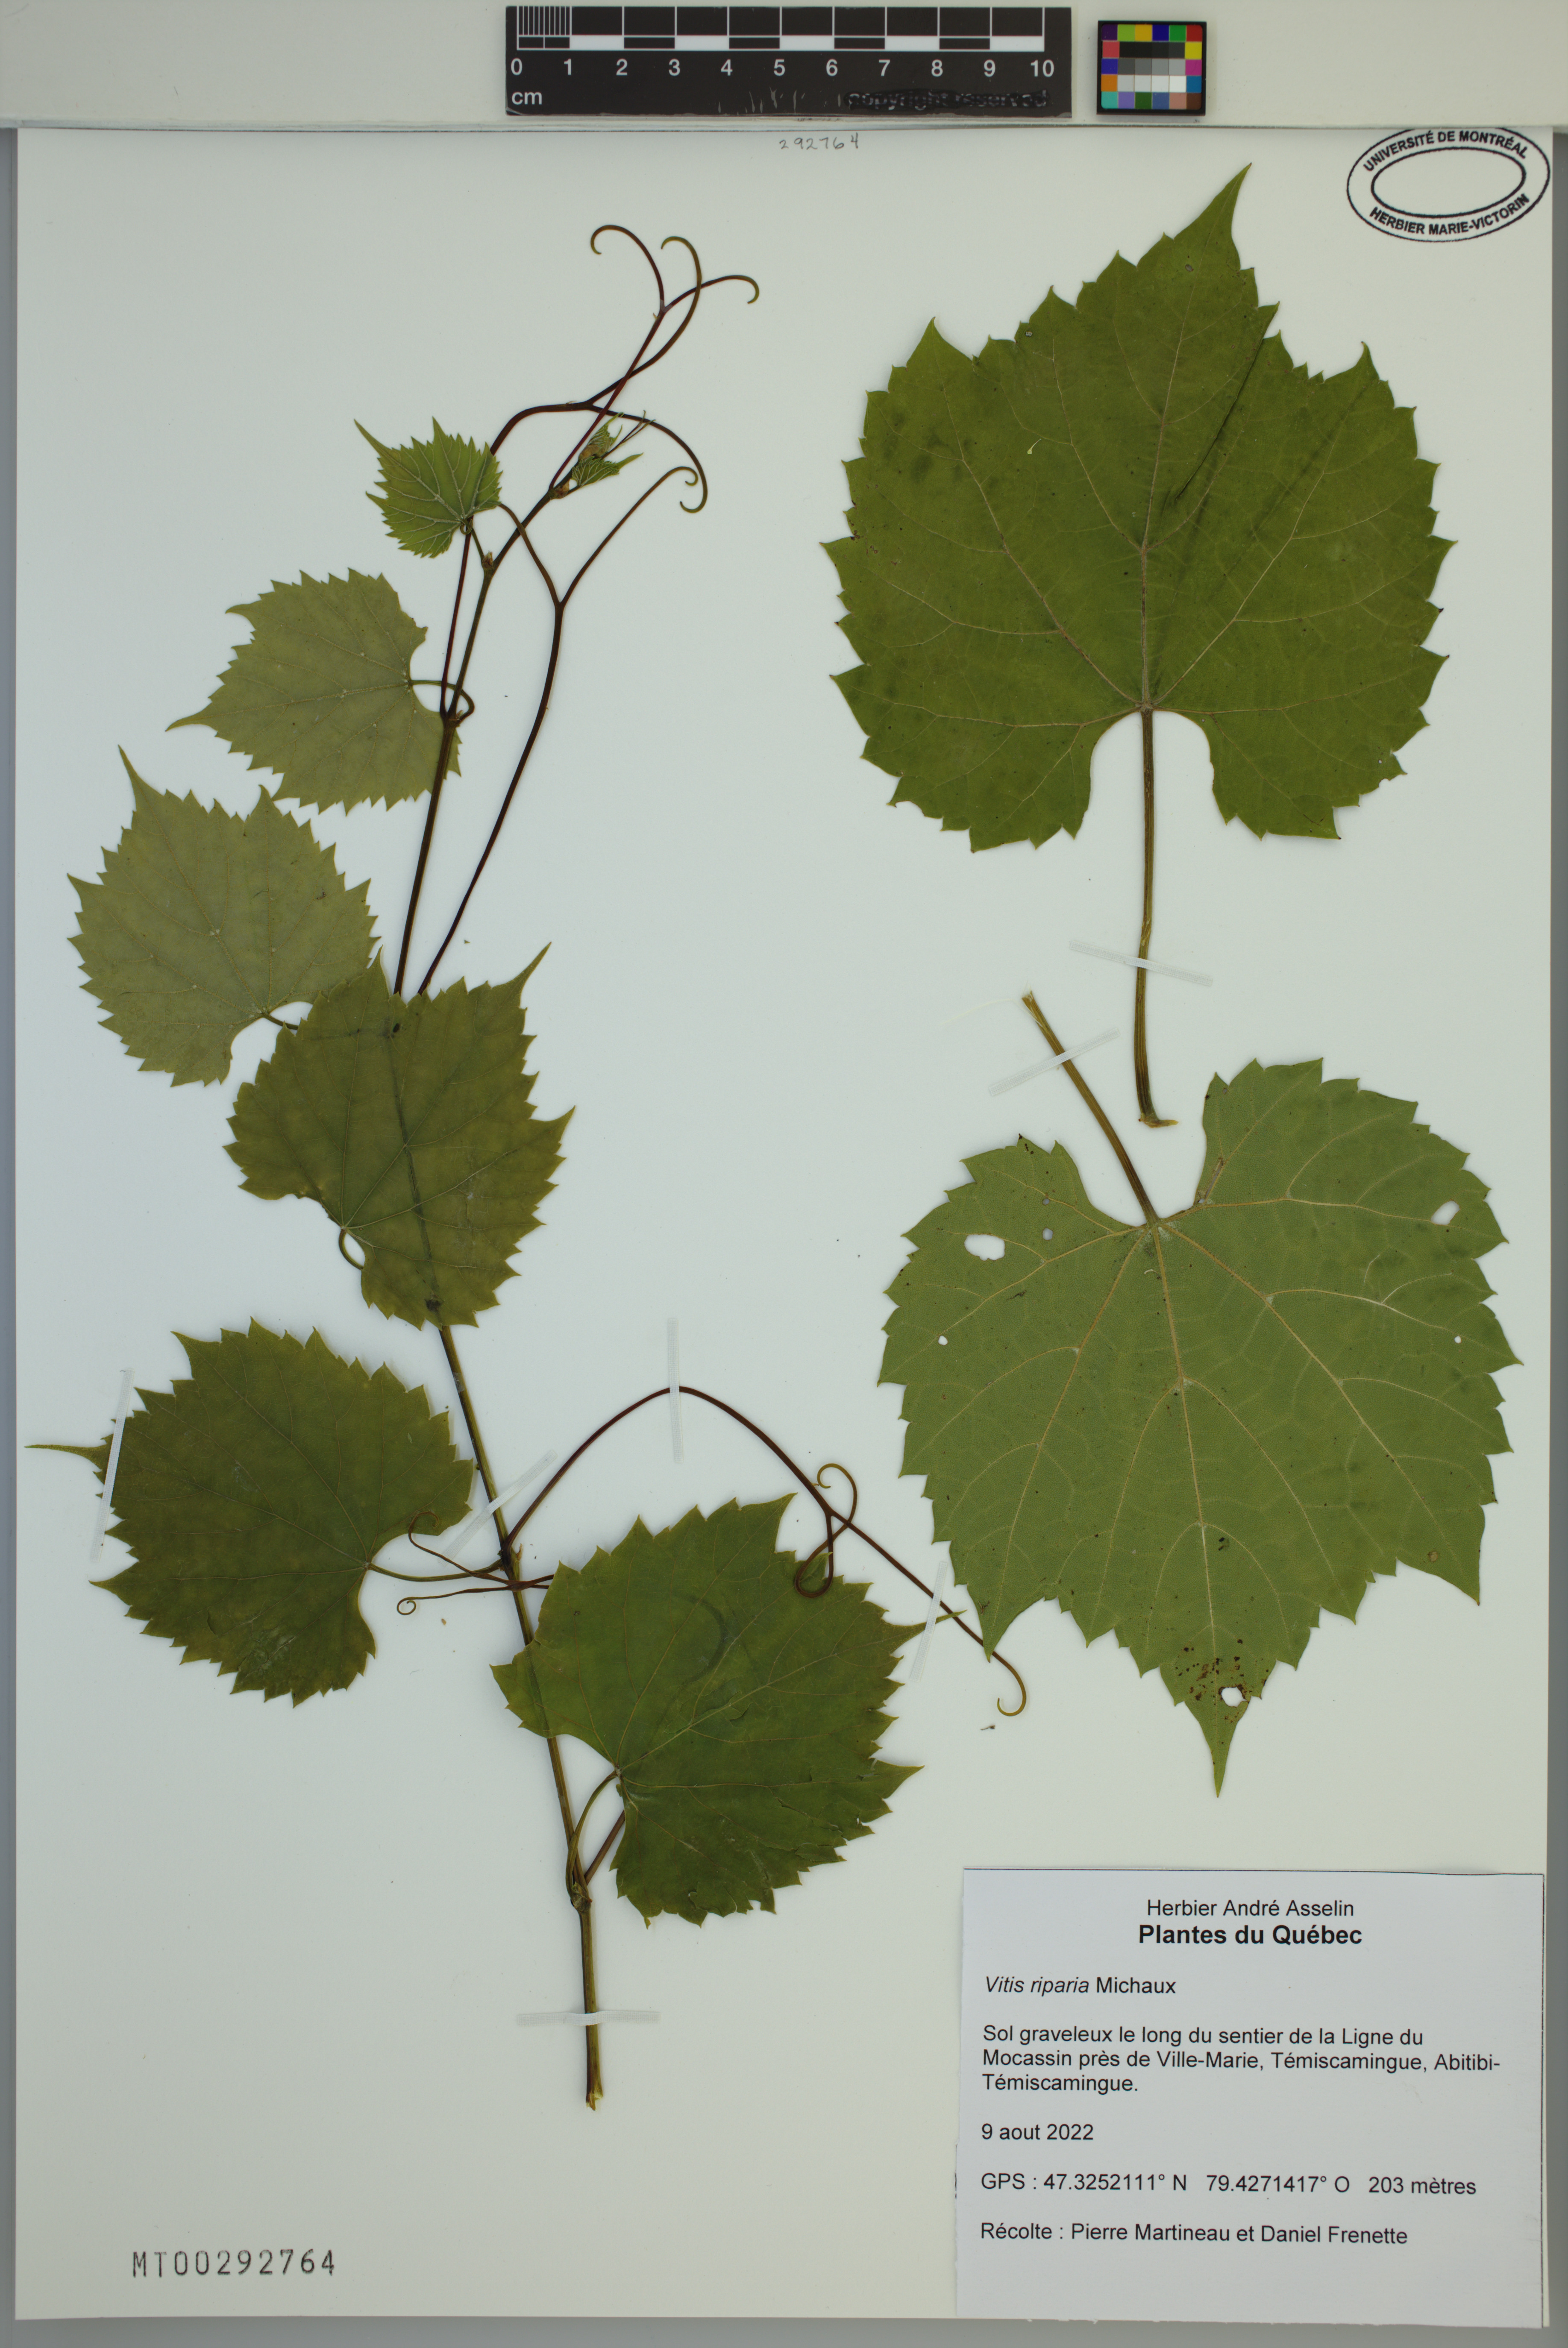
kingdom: Plantae
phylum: Tracheophyta
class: Magnoliopsida
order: Vitales
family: Vitaceae
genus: Vitis
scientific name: Vitis riparia
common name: Frost grape
